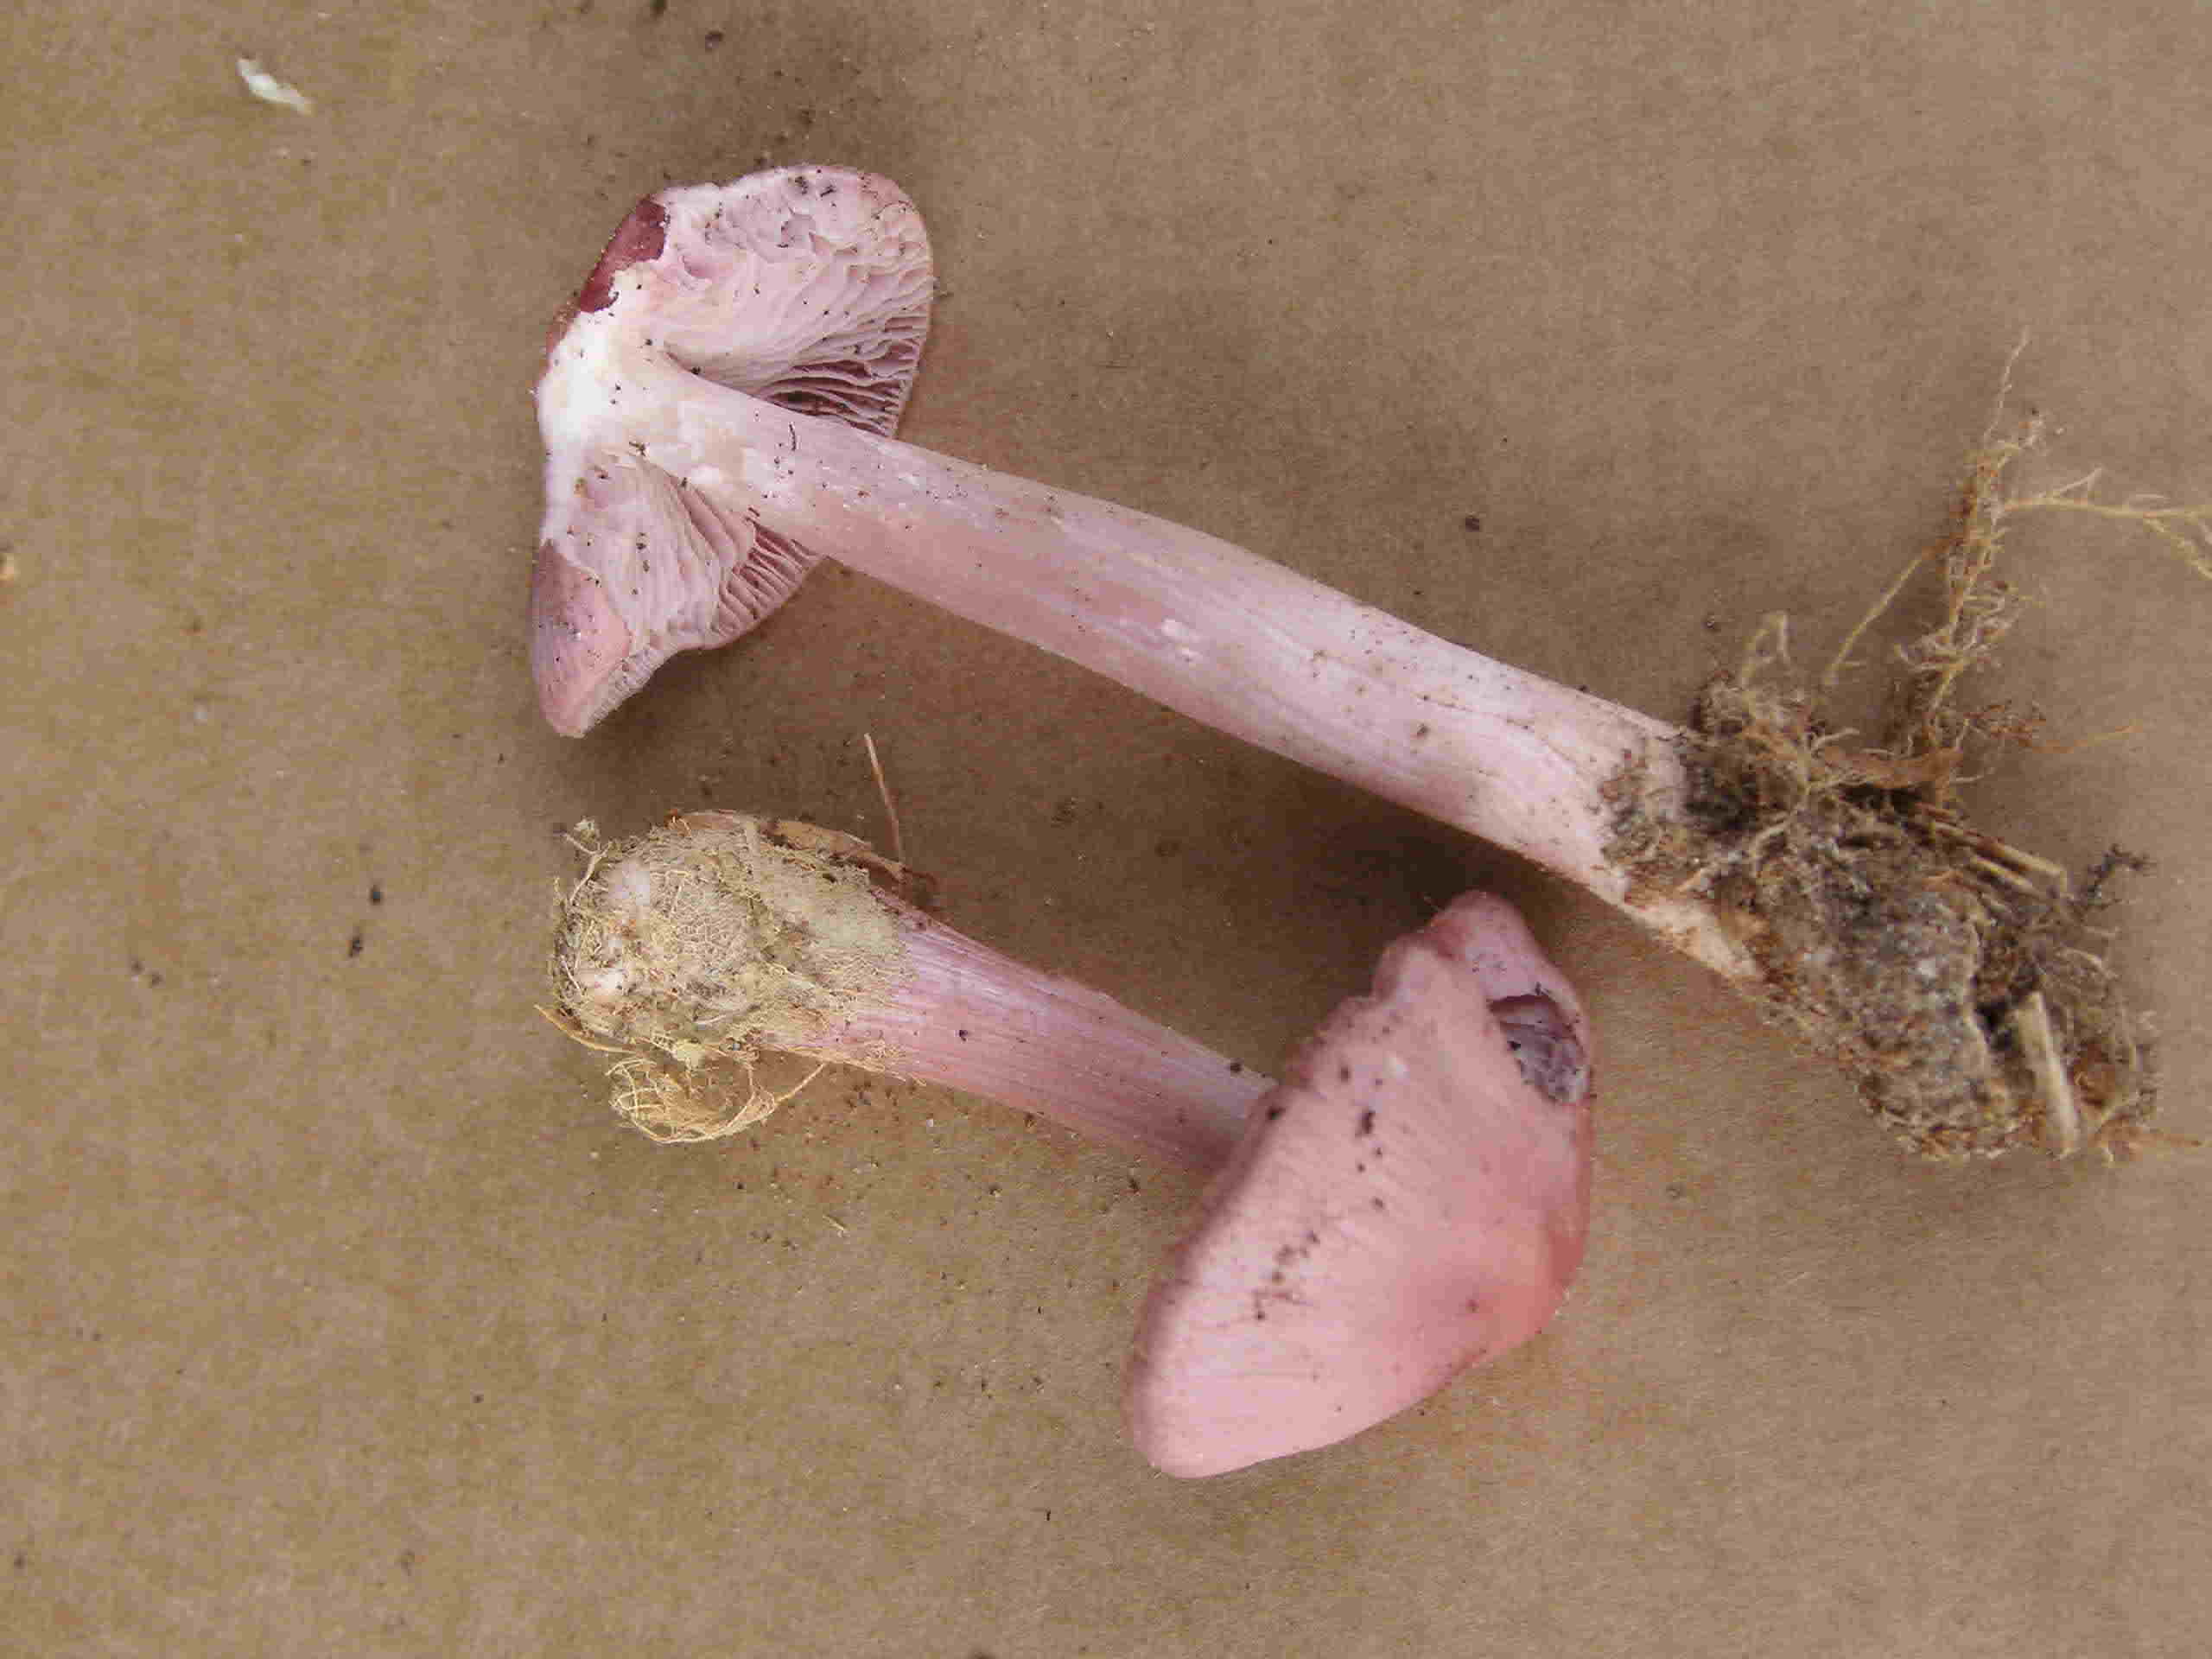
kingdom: Fungi
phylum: Basidiomycota
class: Agaricomycetes
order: Agaricales
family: Mycenaceae
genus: Mycena
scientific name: Mycena rosea
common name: rosa huesvamp
